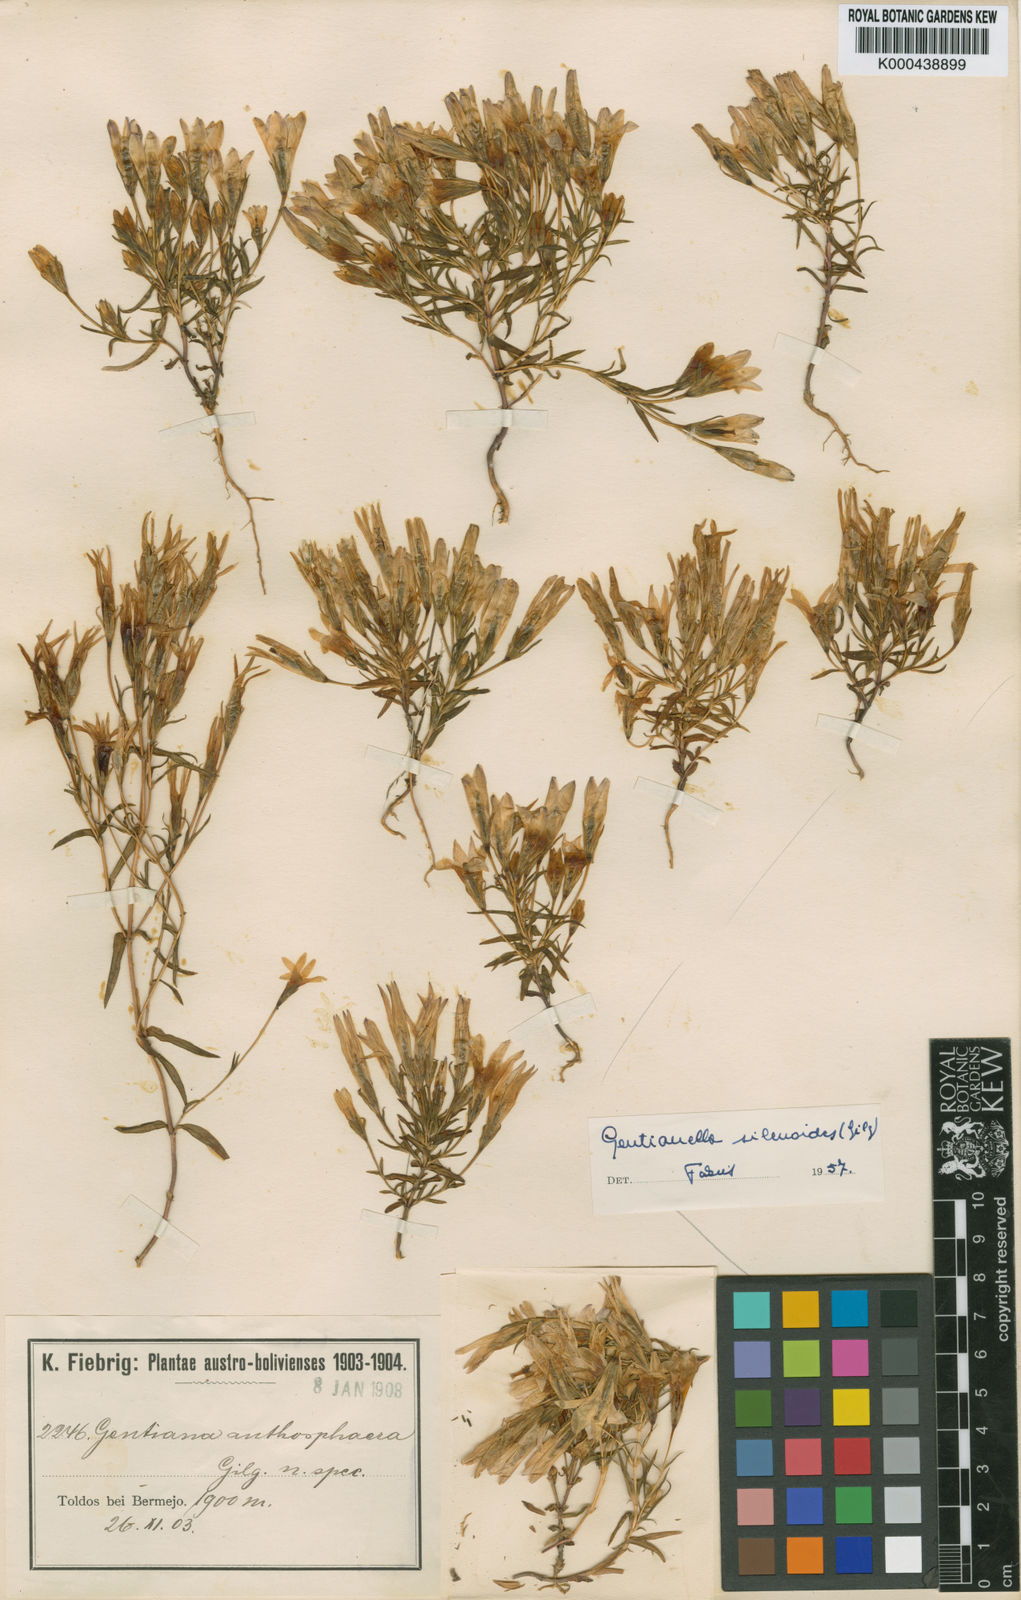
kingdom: Plantae
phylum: Tracheophyta
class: Magnoliopsida
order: Gentianales
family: Gentianaceae
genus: Gentianella
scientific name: Gentianella silenoides
